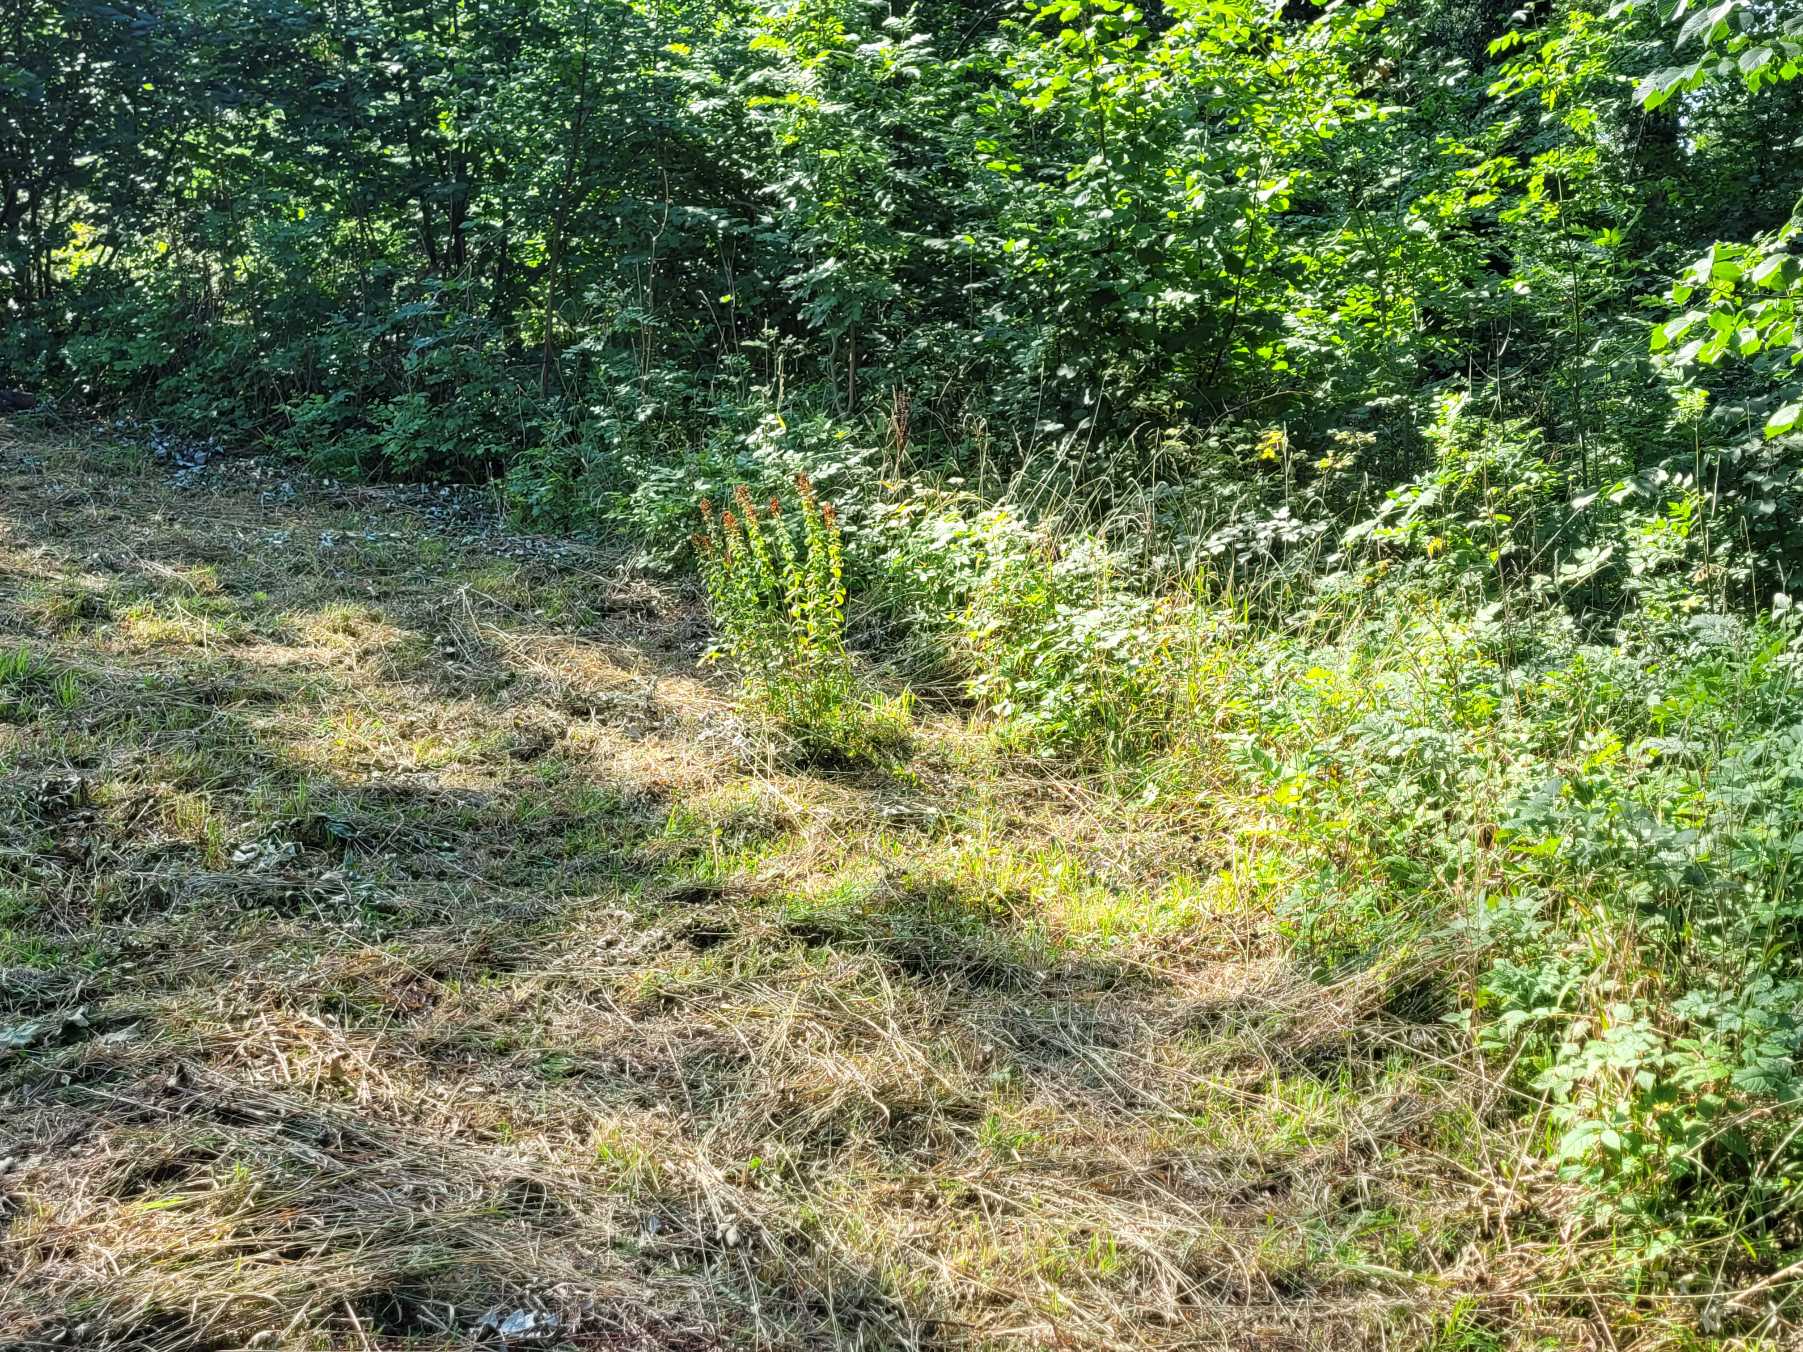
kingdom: Animalia
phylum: Chordata
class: Squamata
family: Colubridae
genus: Natrix
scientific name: Natrix natrix
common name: Snog
